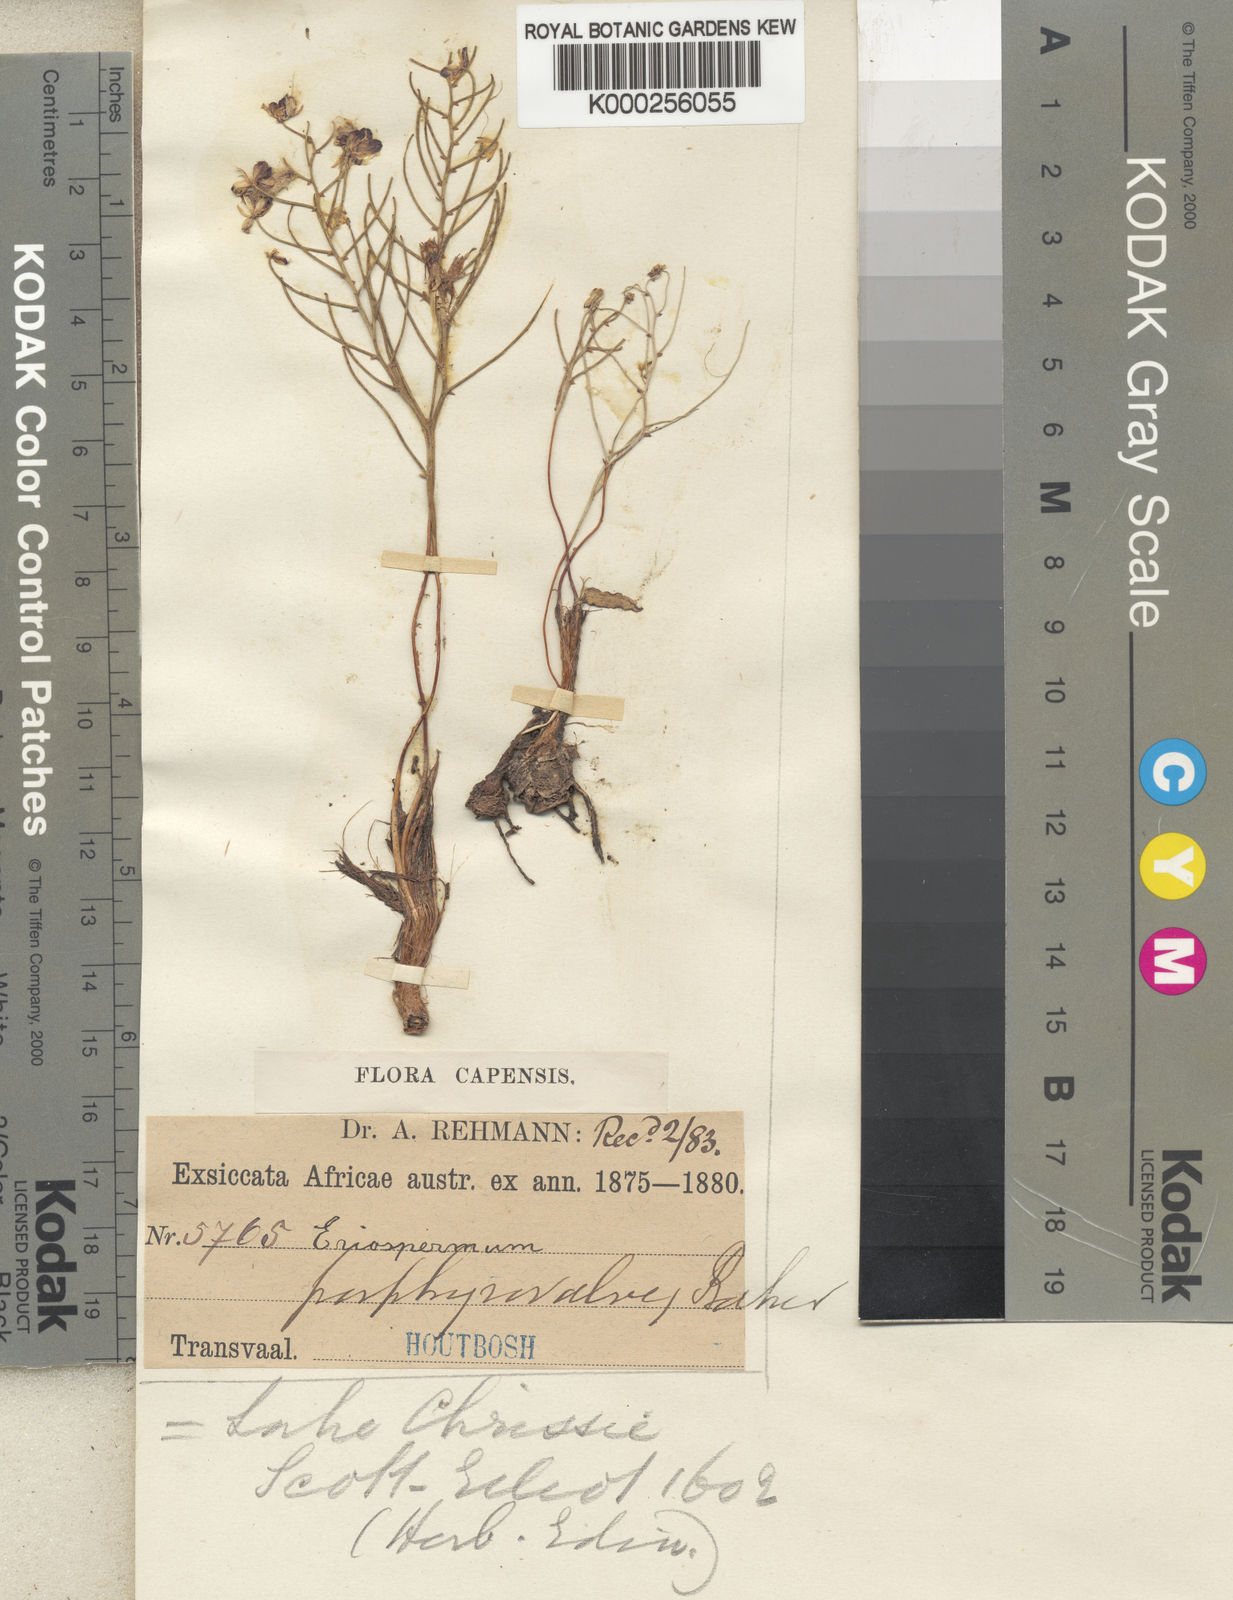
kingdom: Plantae
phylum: Tracheophyta
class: Liliopsida
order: Asparagales
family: Asparagaceae
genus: Eriospermum
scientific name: Eriospermum porphyrovalve
